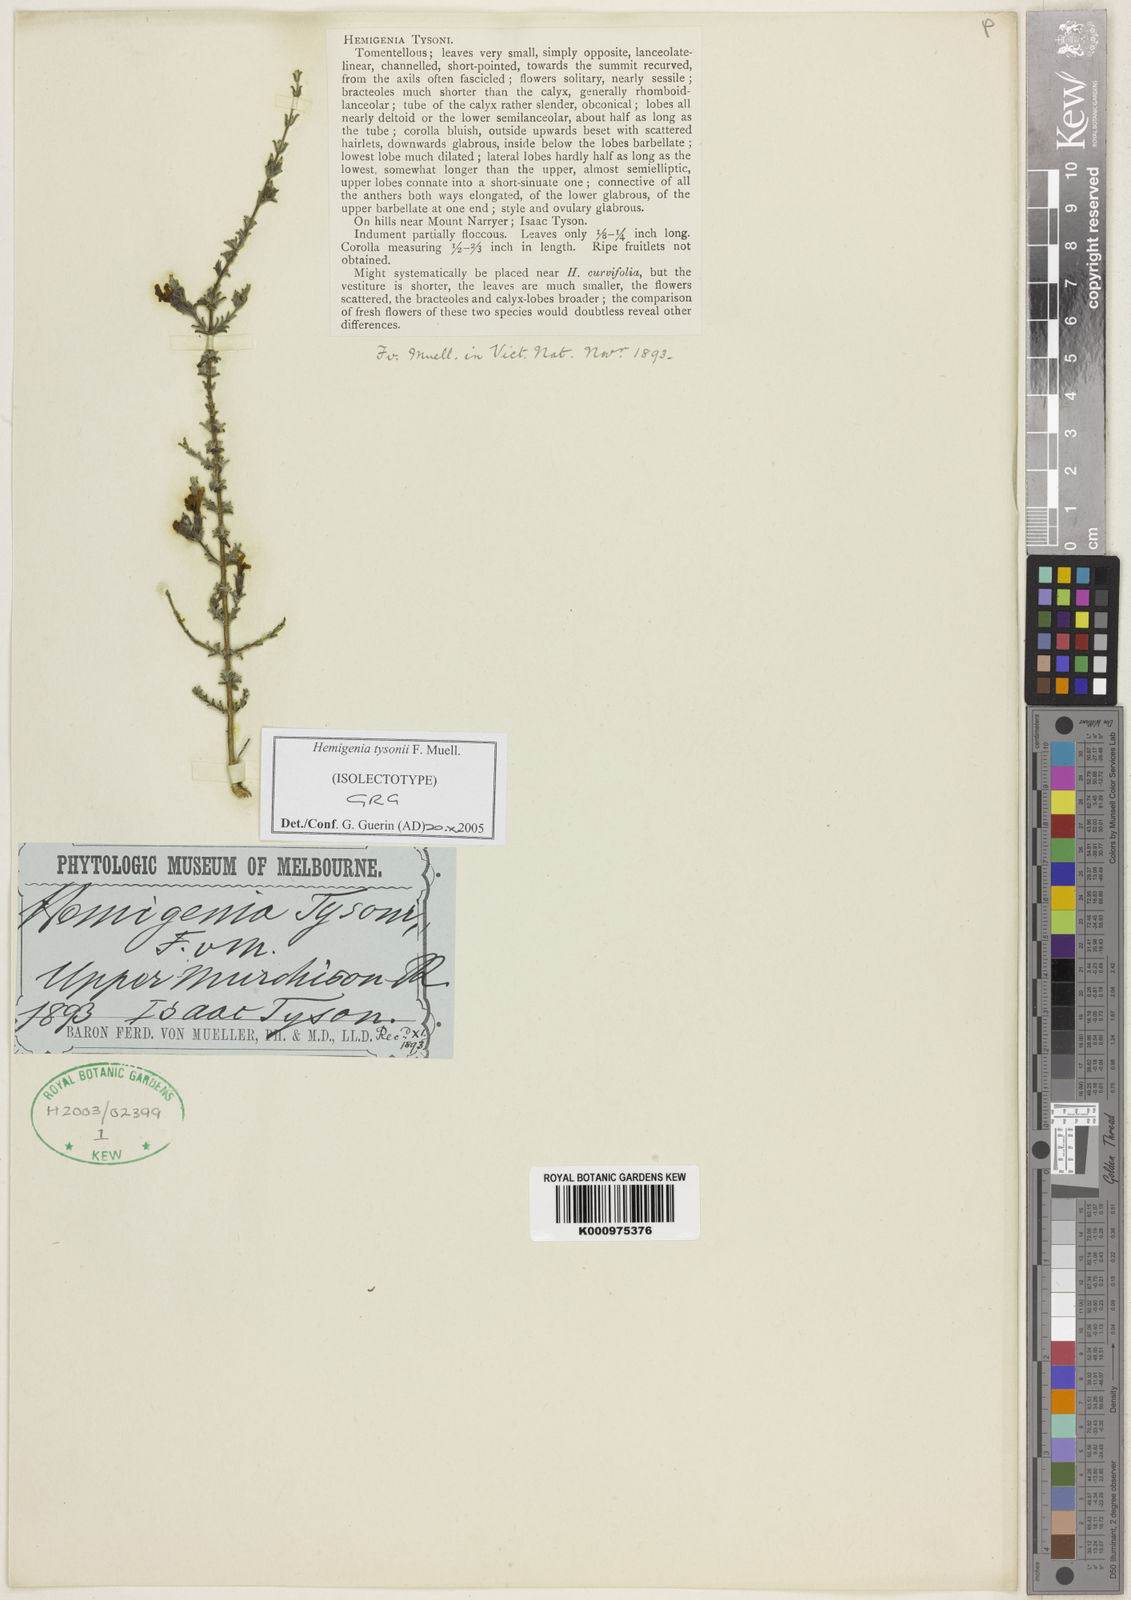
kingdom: Plantae
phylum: Tracheophyta
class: Magnoliopsida
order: Lamiales
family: Lamiaceae
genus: Hemigenia
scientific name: Hemigenia tysonii
